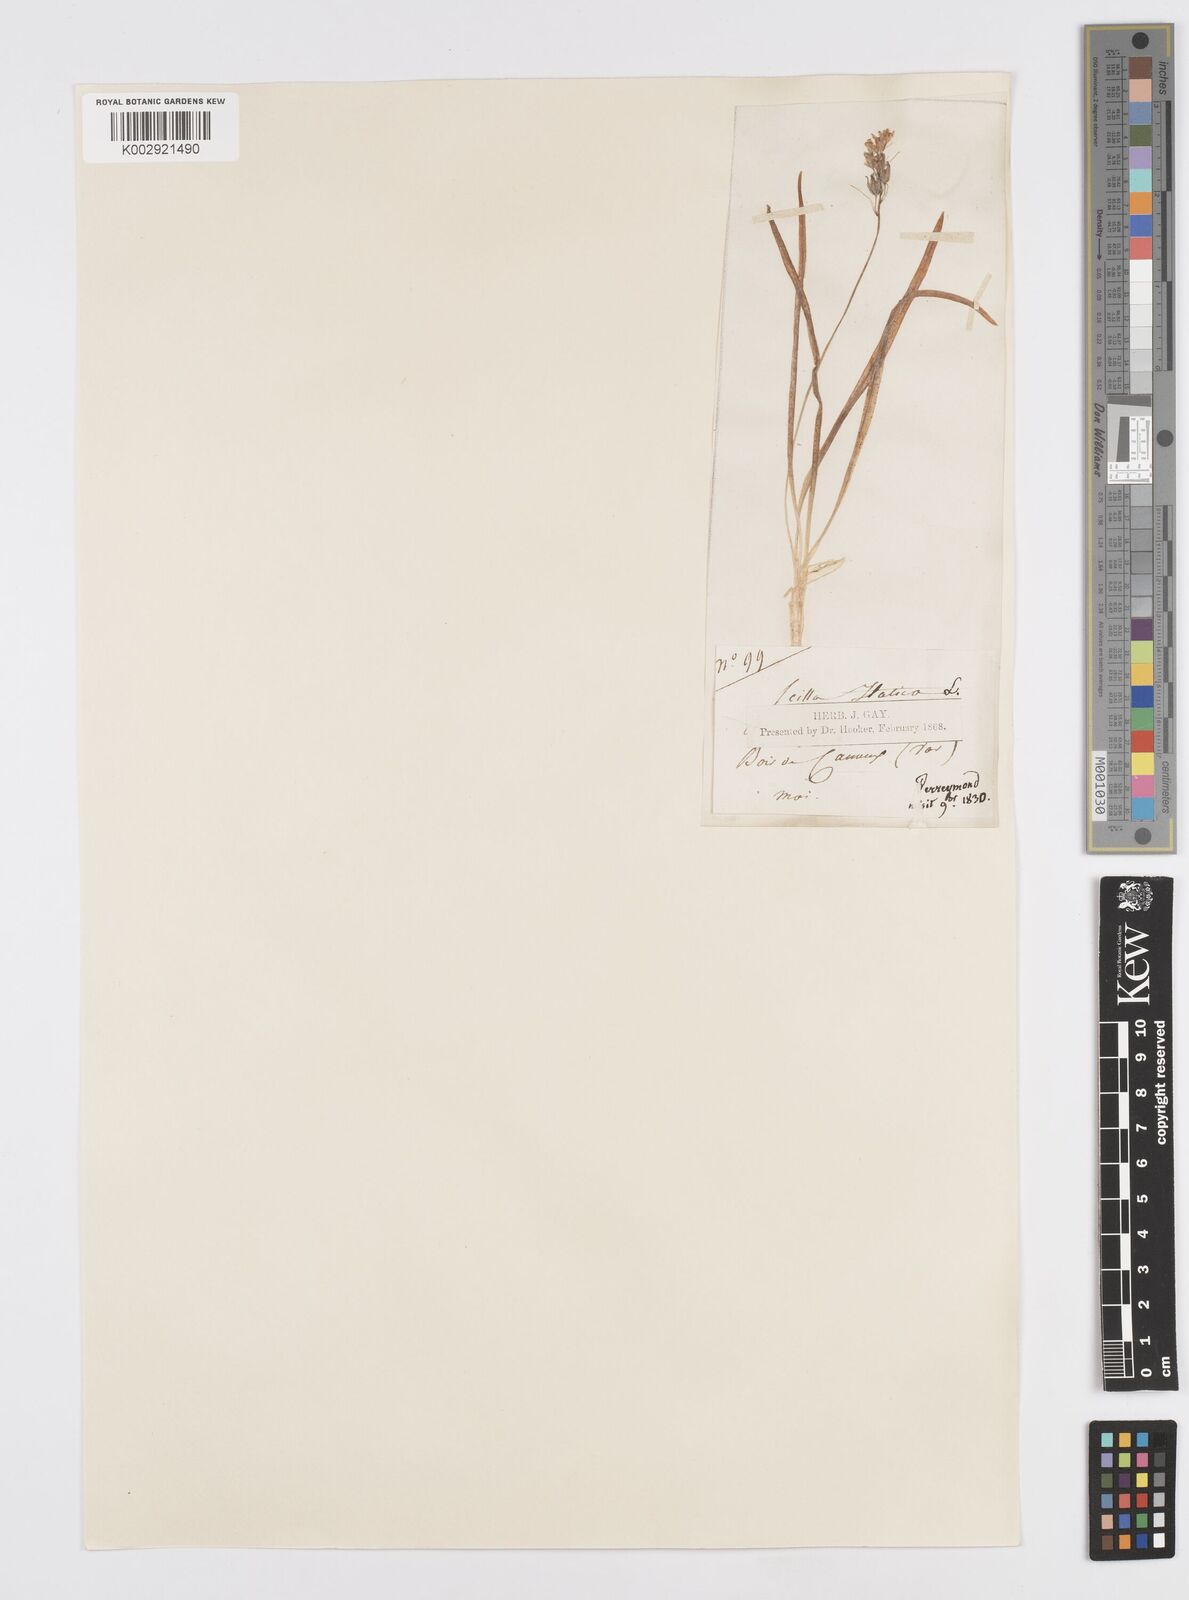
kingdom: Plantae
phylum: Tracheophyta
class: Liliopsida
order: Asparagales
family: Asparagaceae
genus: Hyacinthoides
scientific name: Hyacinthoides italica
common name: Italian bluebell
